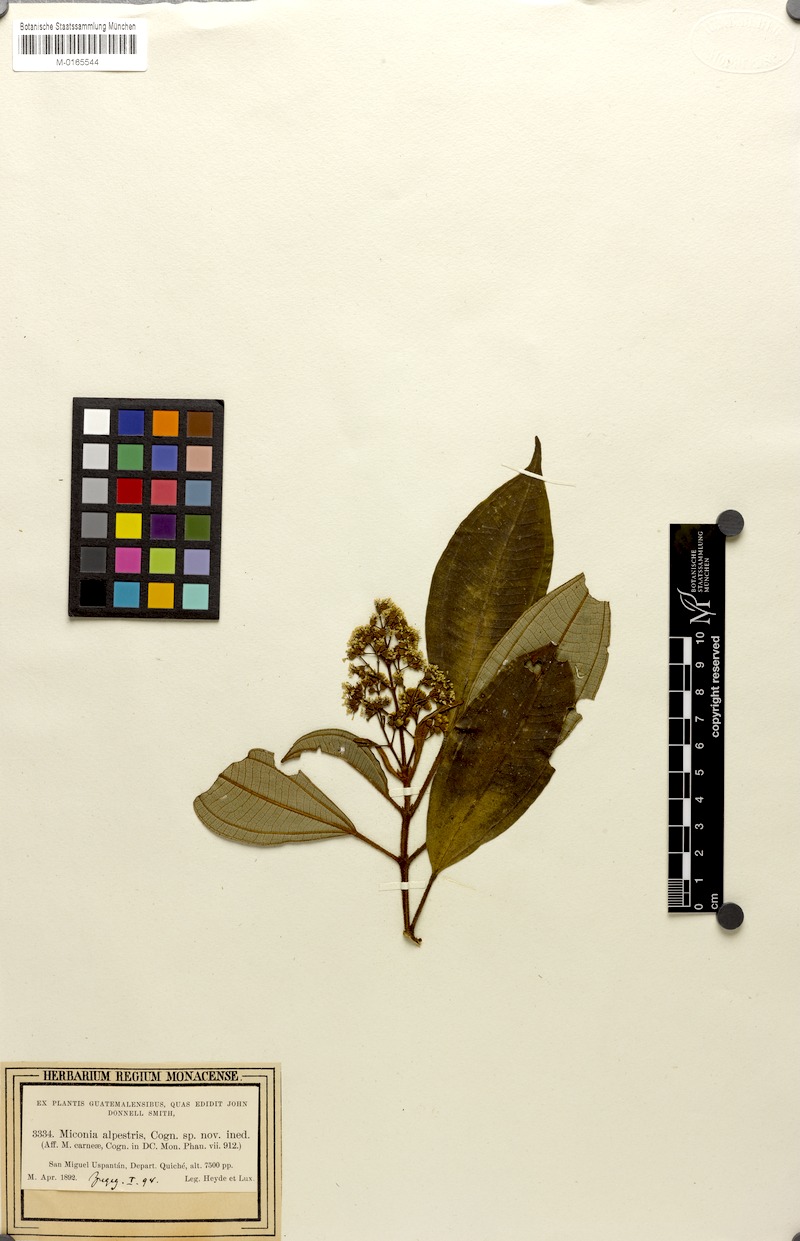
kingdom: Plantae
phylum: Tracheophyta
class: Magnoliopsida
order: Myrtales
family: Melastomataceae
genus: Miconia
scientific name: Miconia alpestris
